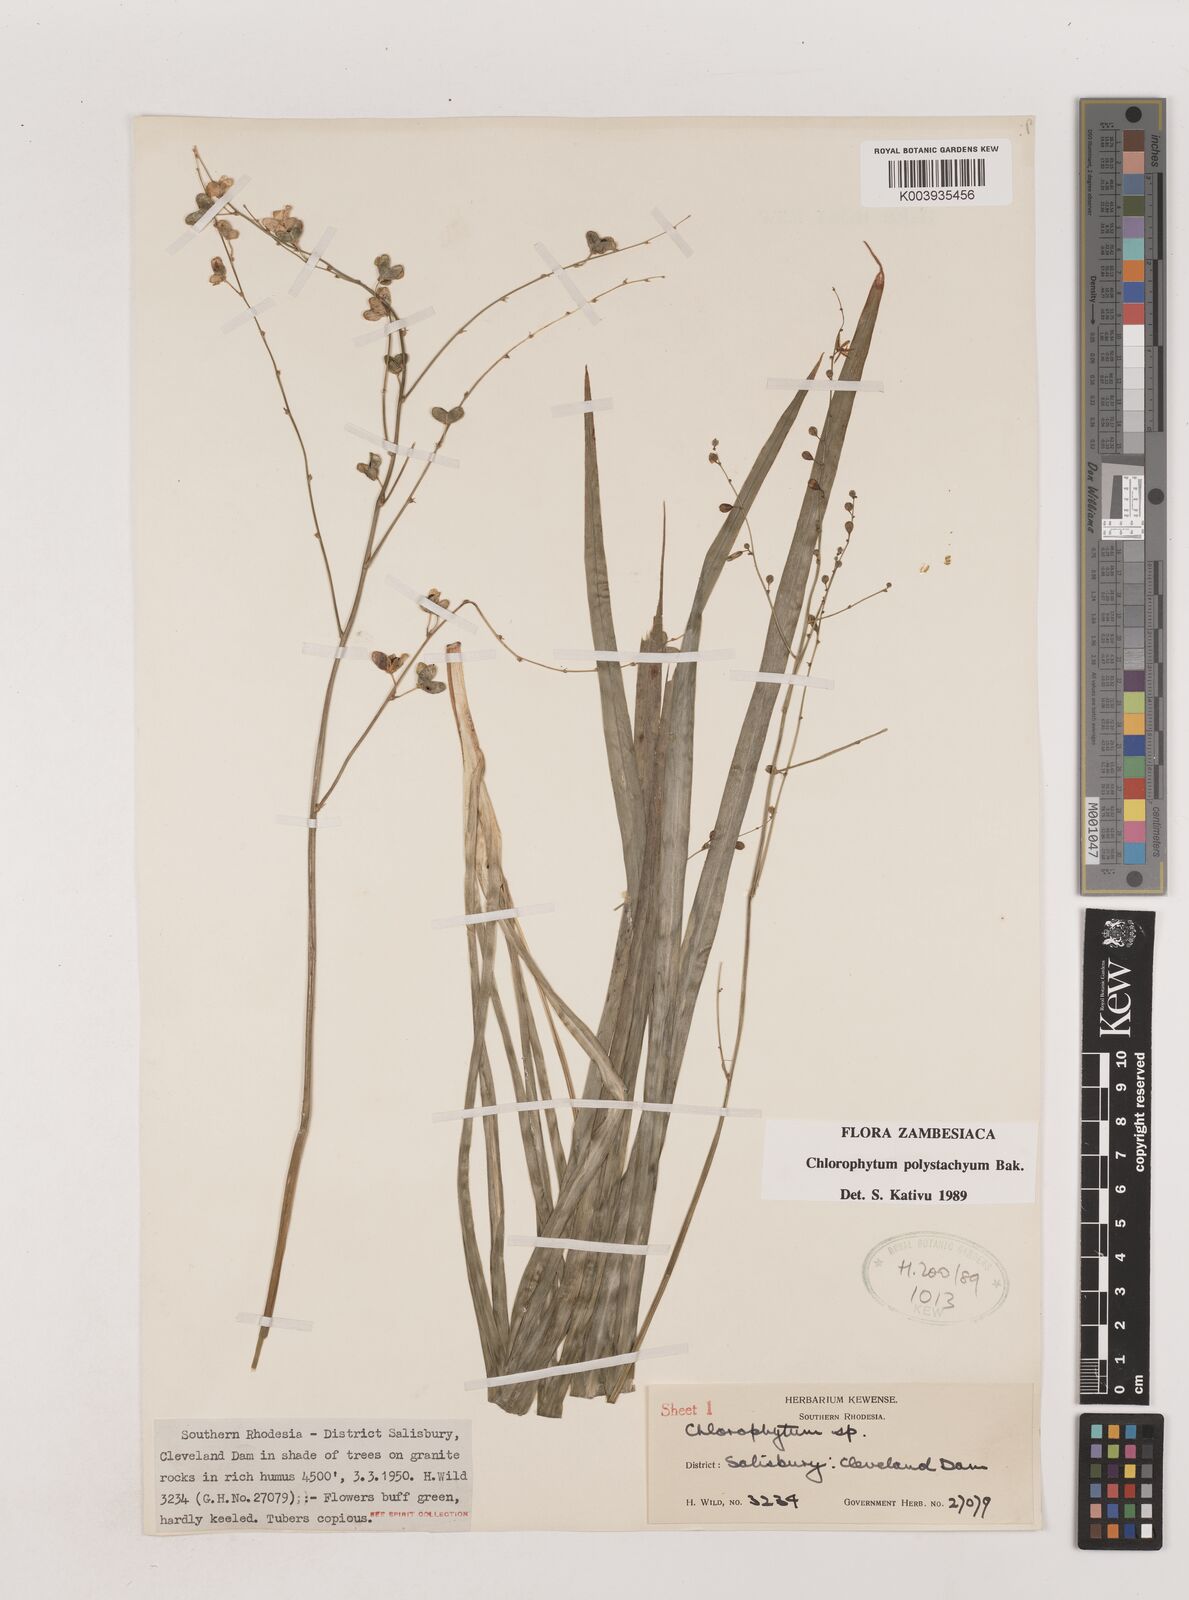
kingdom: Plantae
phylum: Tracheophyta
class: Liliopsida
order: Asparagales
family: Asparagaceae
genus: Chlorophytum
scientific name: Chlorophytum polystachys
